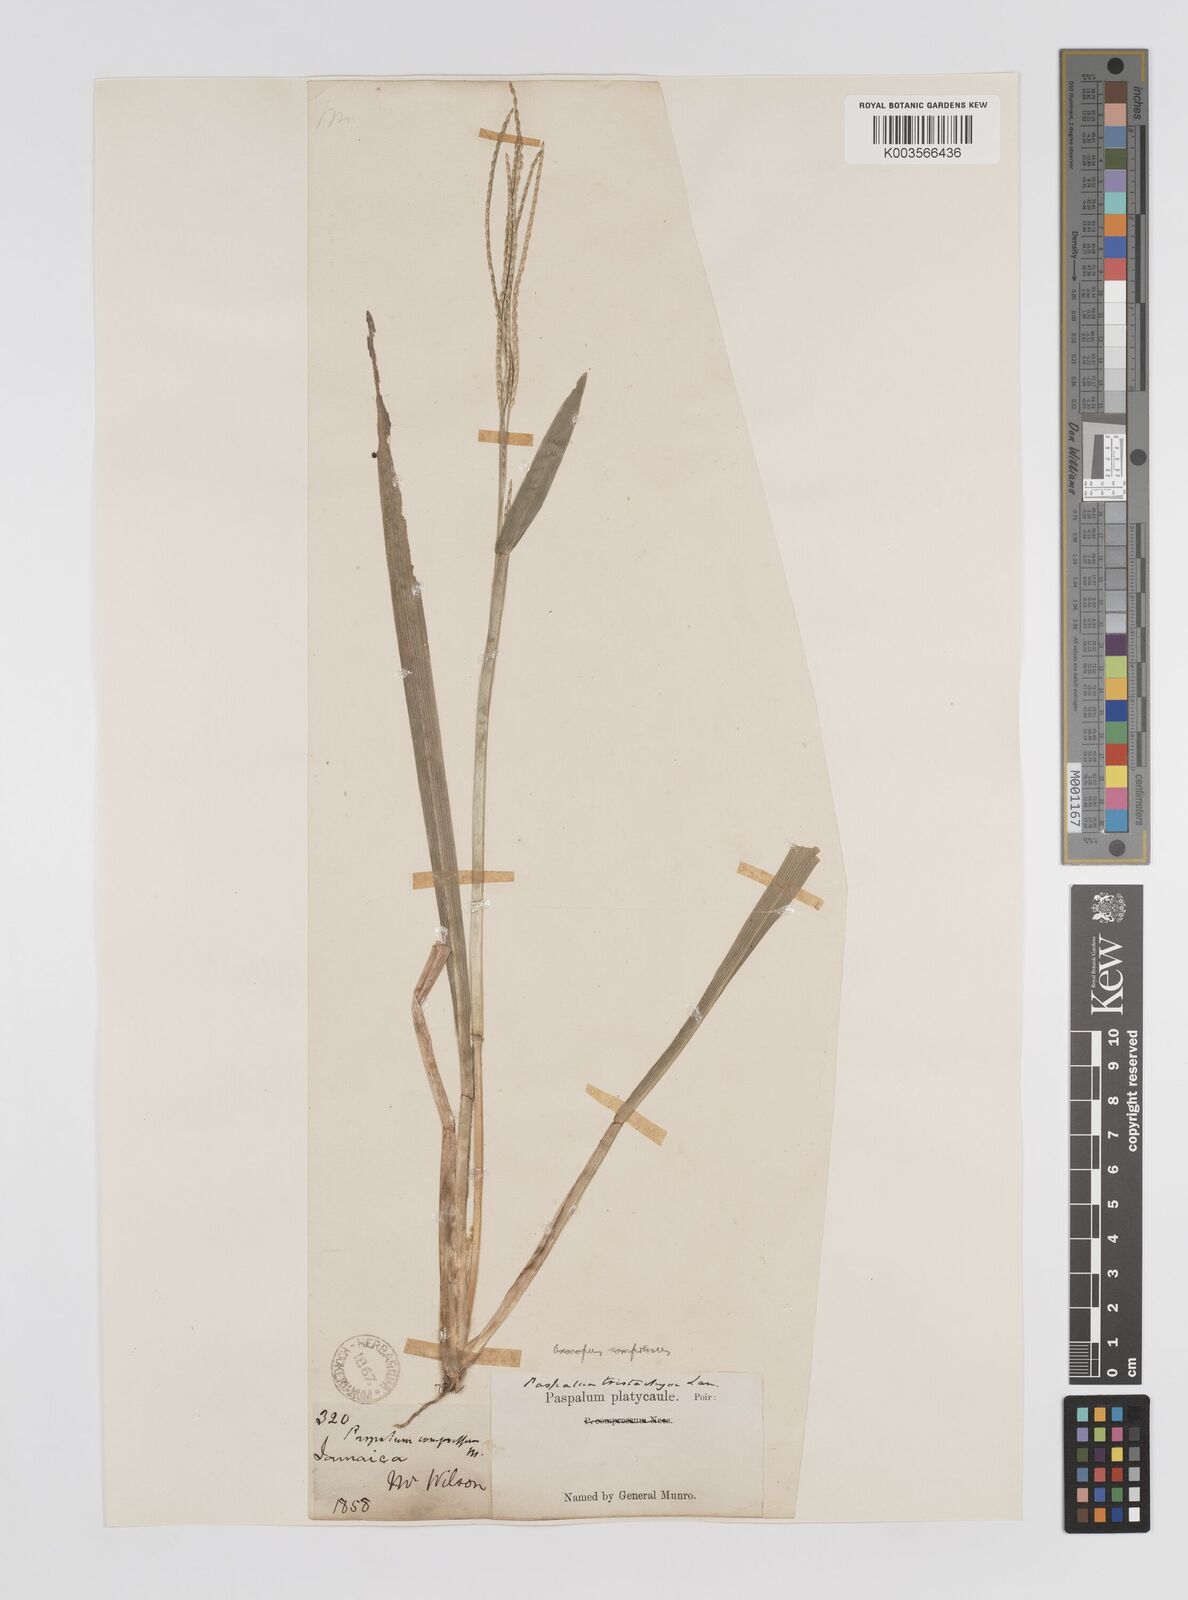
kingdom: Plantae
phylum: Tracheophyta
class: Liliopsida
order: Poales
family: Poaceae
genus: Axonopus
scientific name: Axonopus compressus
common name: American carpet grass
